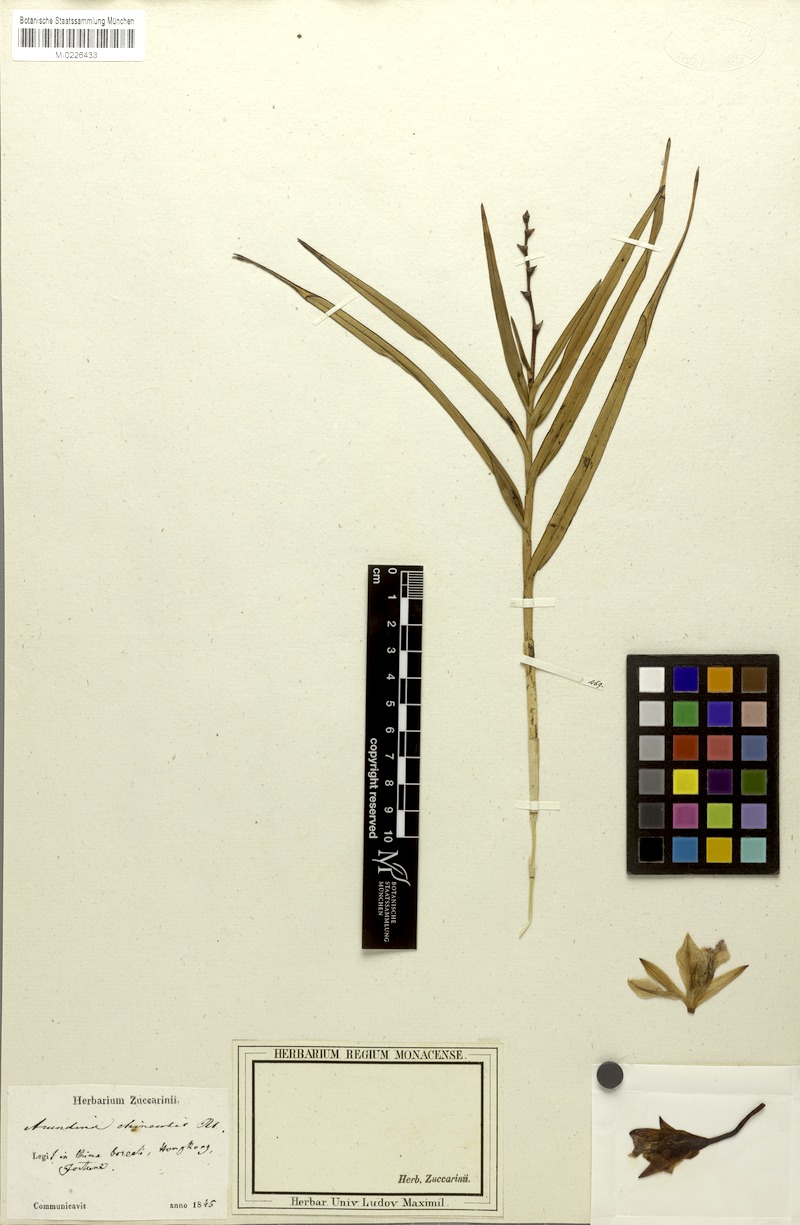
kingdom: Plantae
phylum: Tracheophyta
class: Liliopsida
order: Asparagales
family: Orchidaceae
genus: Arundina
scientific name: Arundina graminifolia
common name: Bamboo orchid
